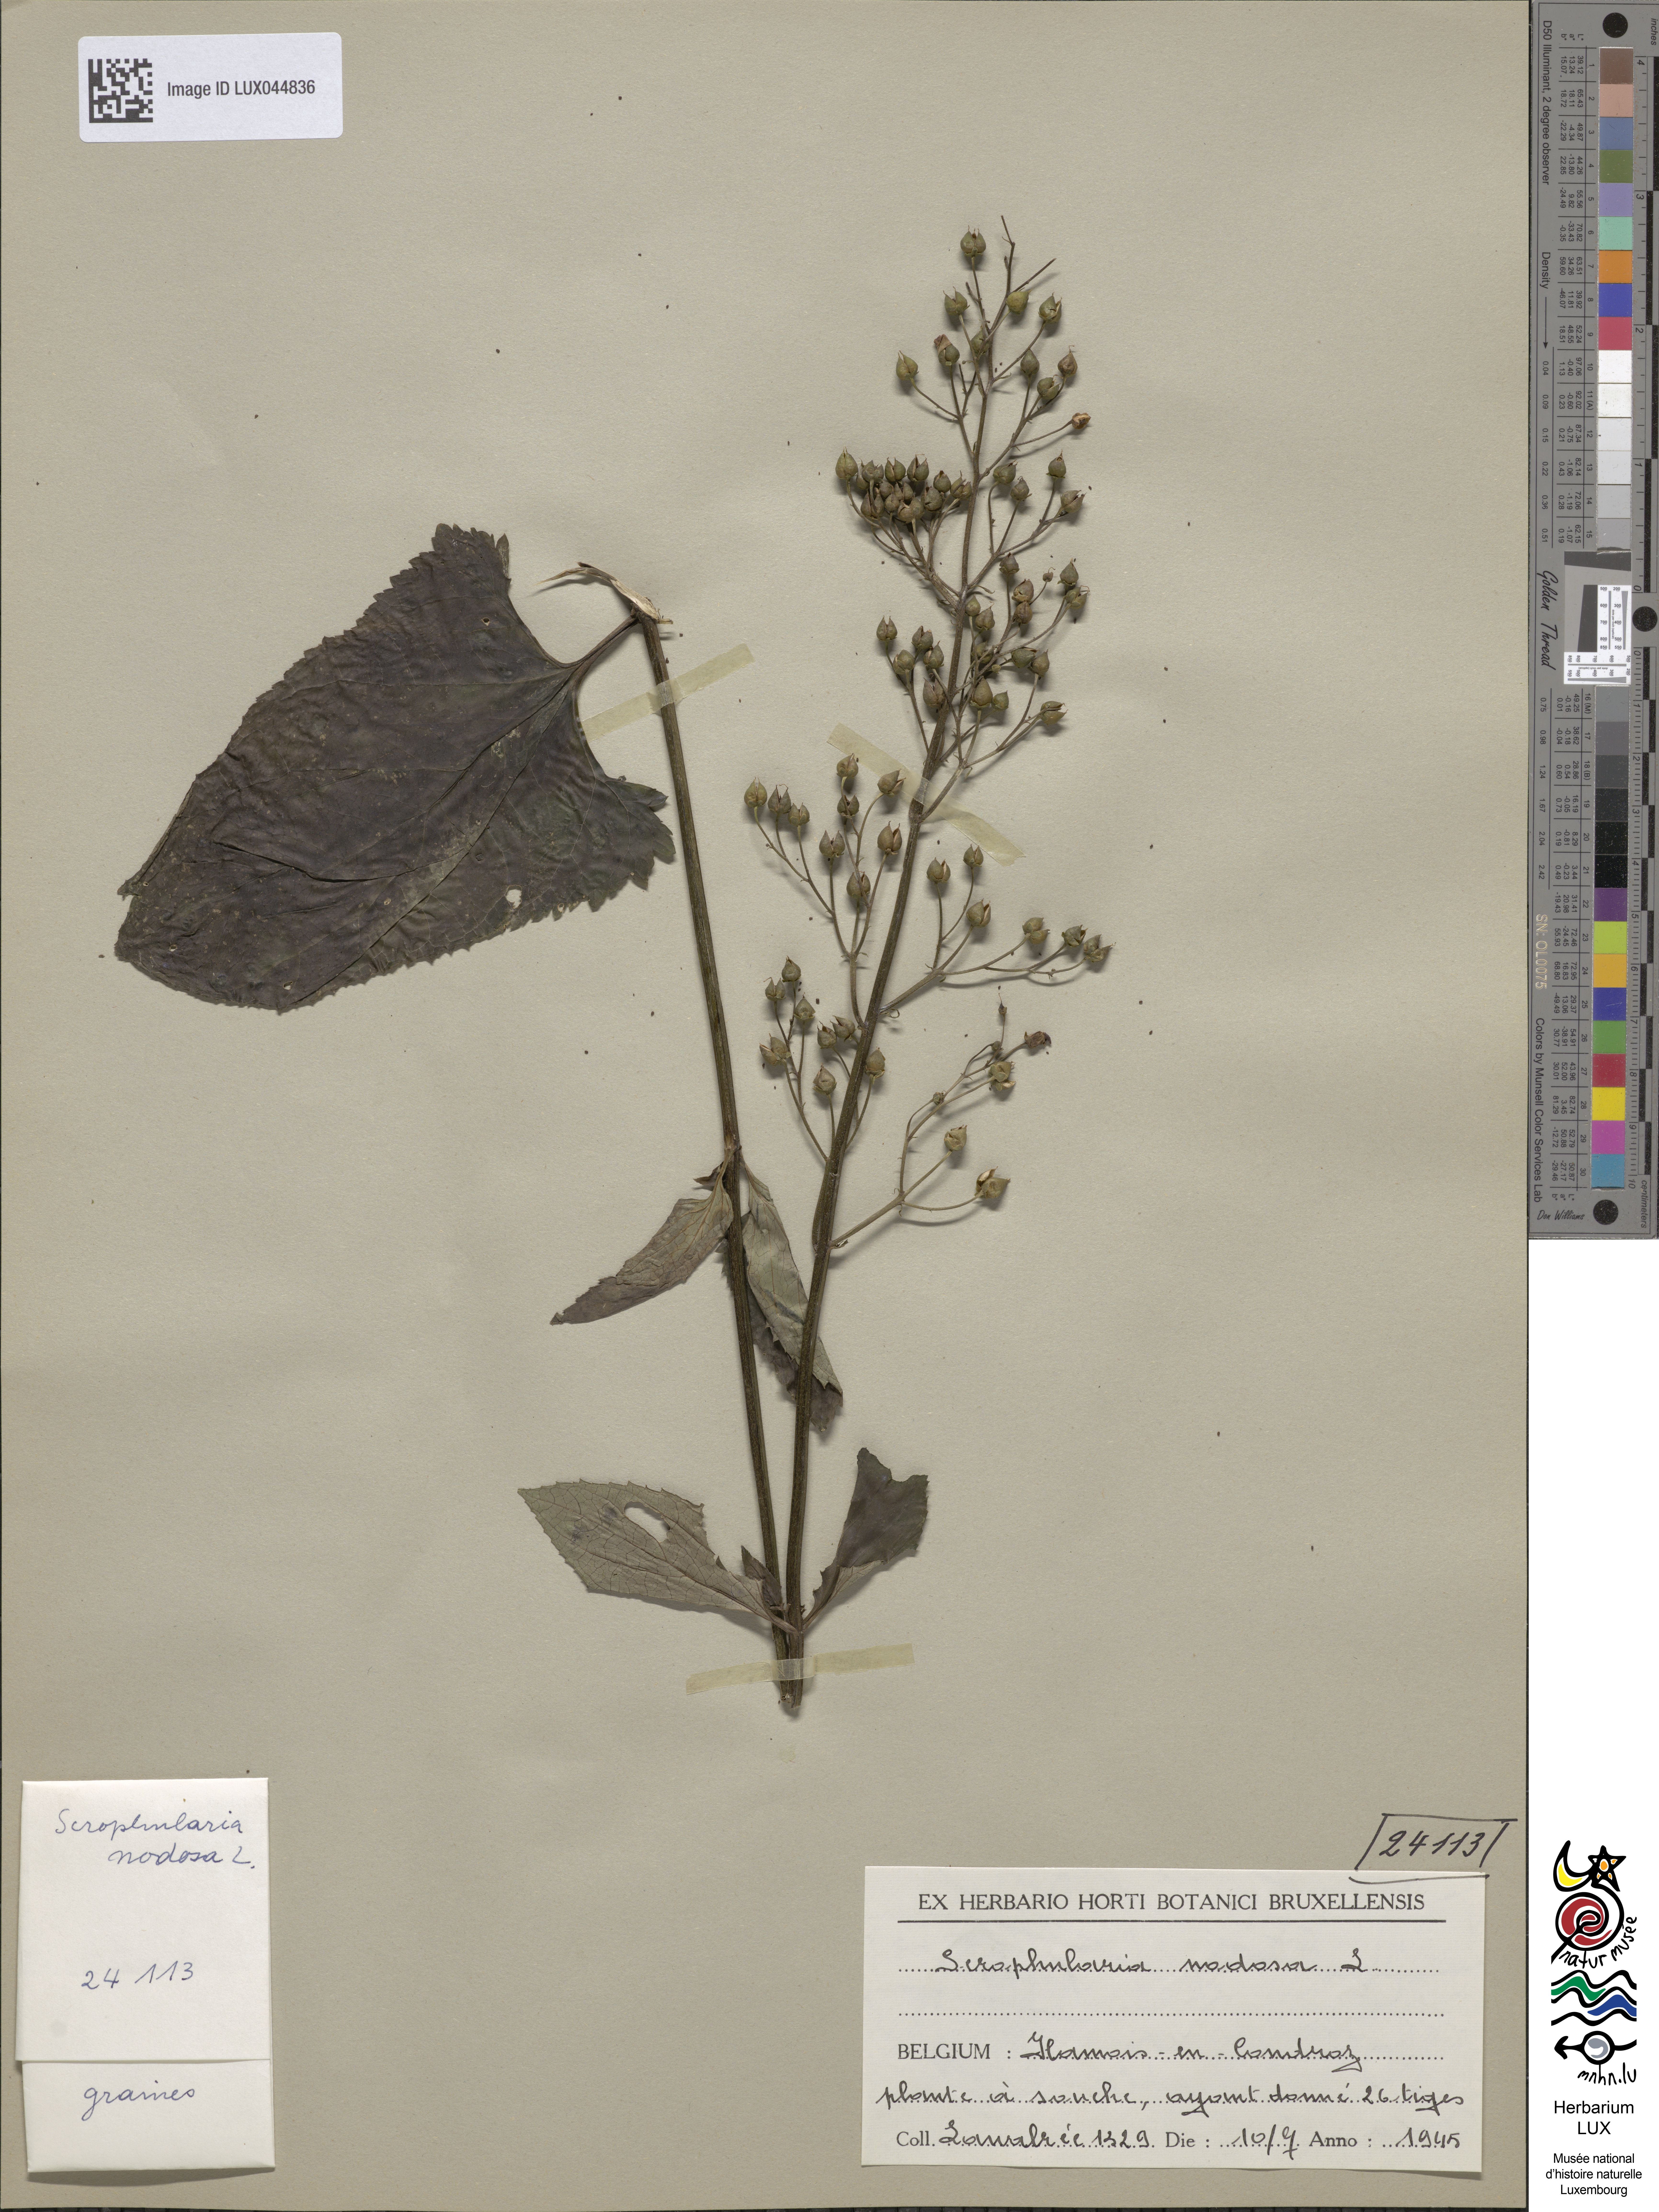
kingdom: Plantae
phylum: Tracheophyta
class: Magnoliopsida
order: Lamiales
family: Scrophulariaceae
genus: Scrophularia
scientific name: Scrophularia nodosa
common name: Common figwort
